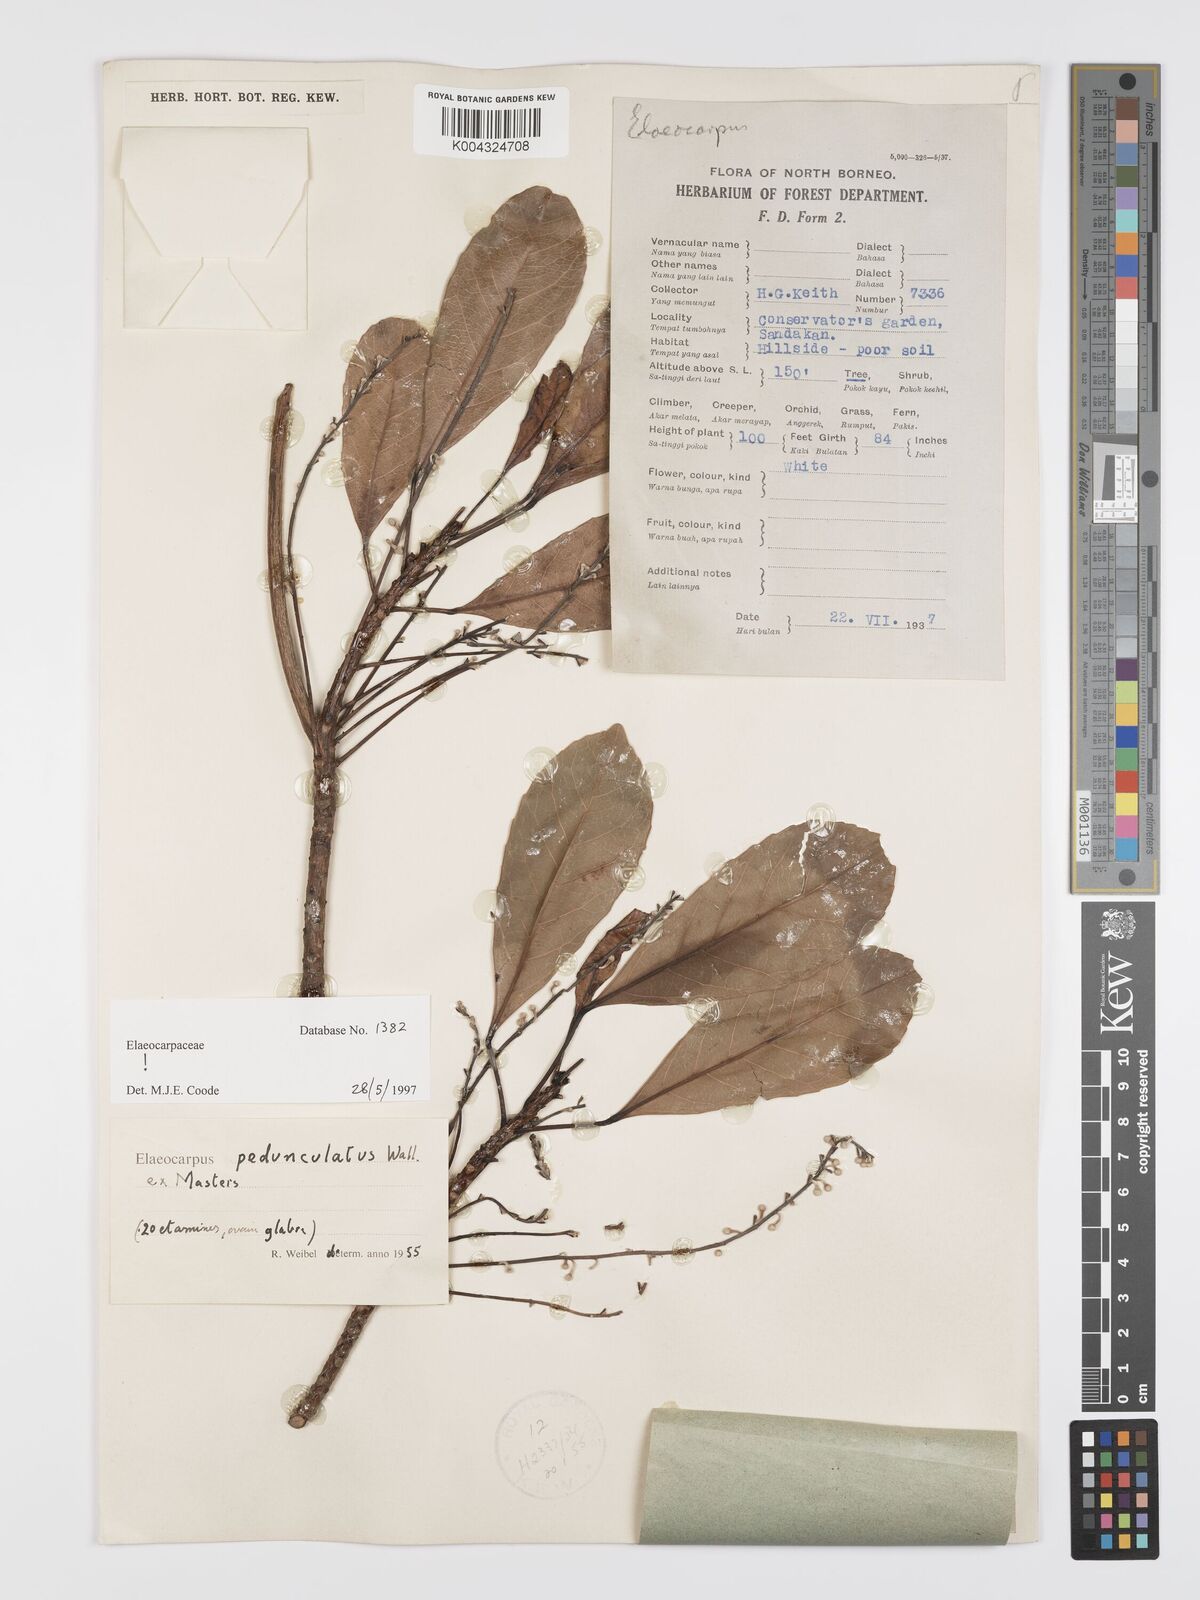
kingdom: Plantae
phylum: Tracheophyta
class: Magnoliopsida
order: Oxalidales
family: Elaeocarpaceae
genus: Elaeocarpus
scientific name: Elaeocarpus pedunculatus
